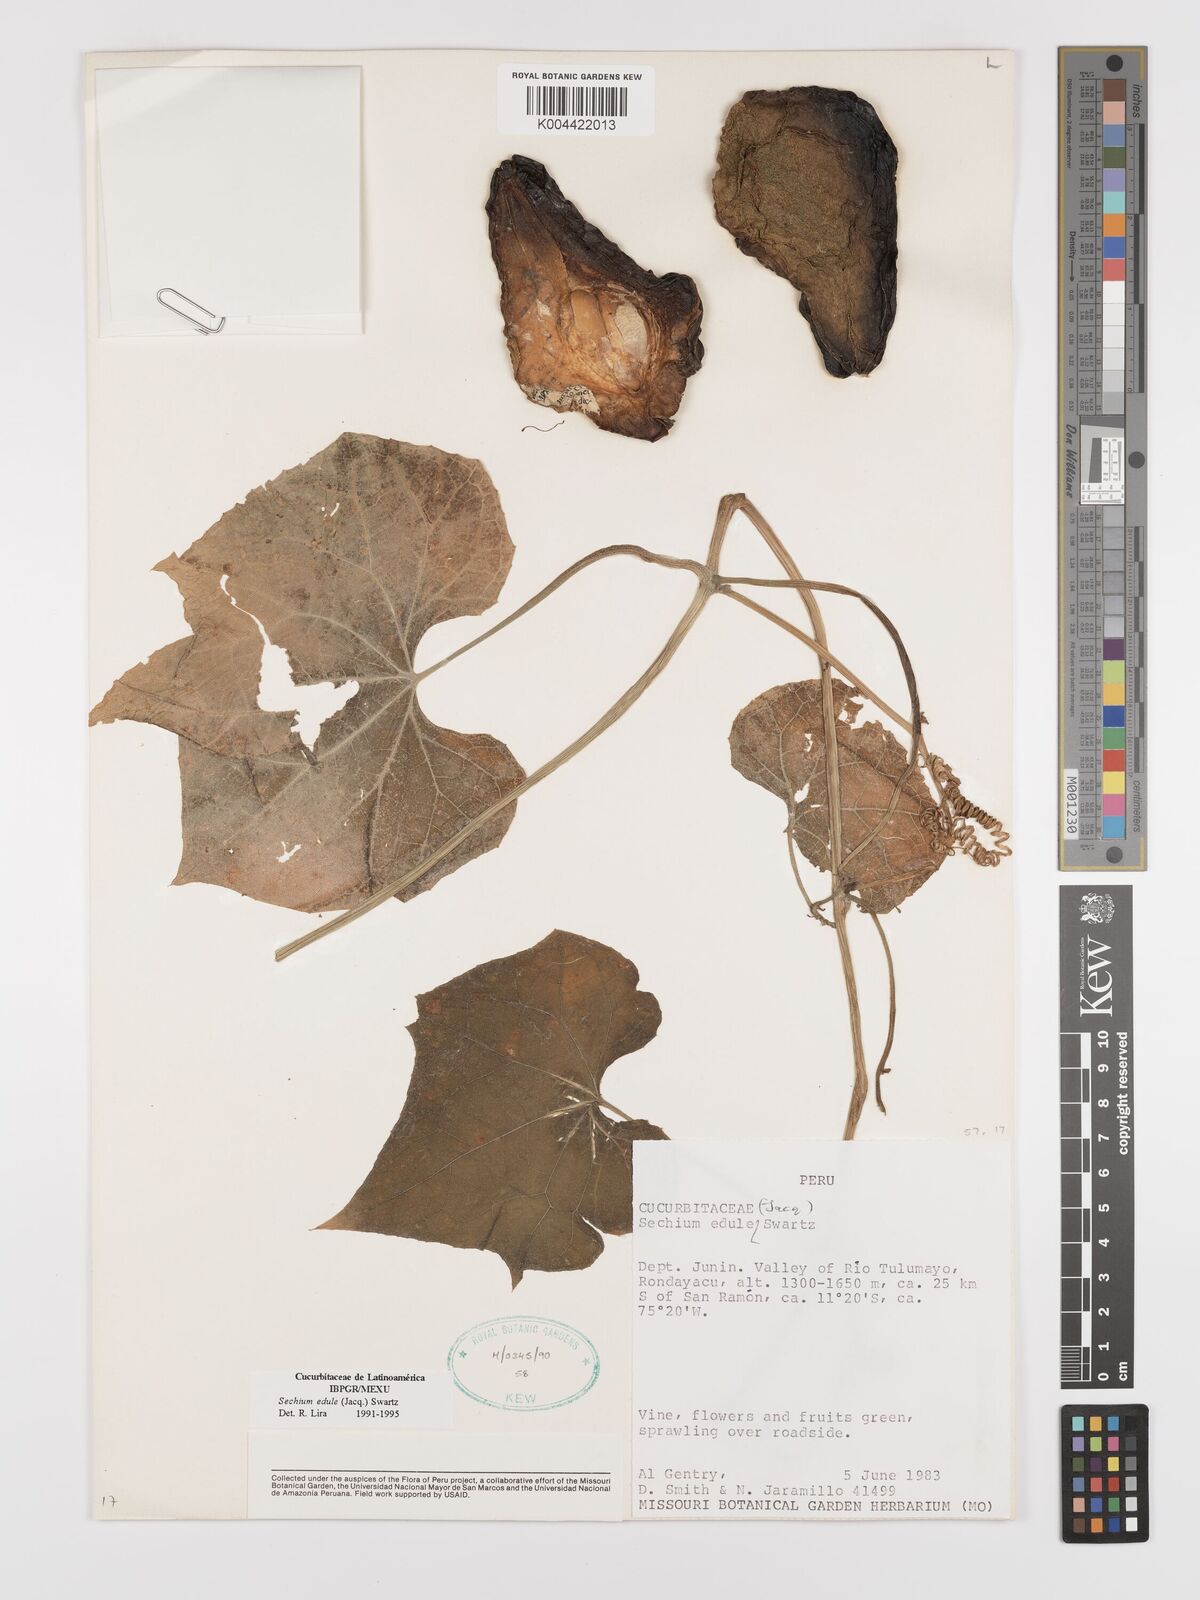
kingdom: Plantae
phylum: Tracheophyta
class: Magnoliopsida
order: Cucurbitales
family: Cucurbitaceae
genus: Sechium
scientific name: Sechium edule
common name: Chayote
